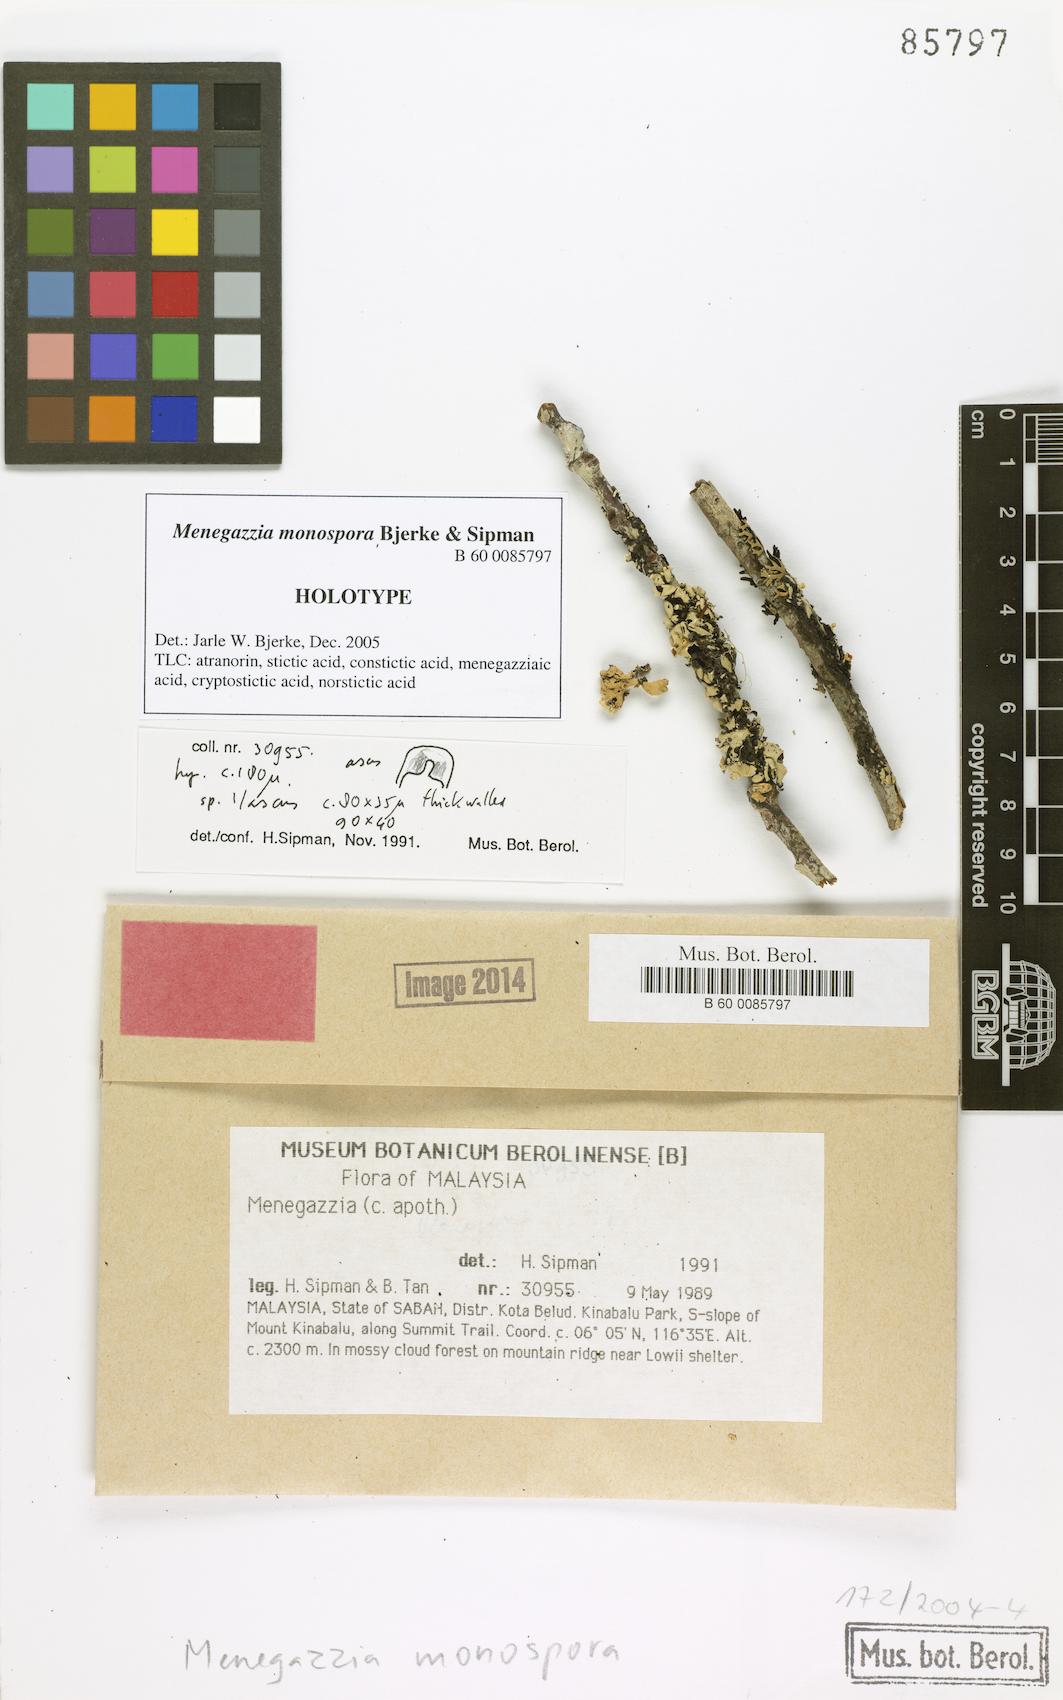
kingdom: Fungi
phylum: Ascomycota
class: Lecanoromycetes
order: Lecanorales
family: Parmeliaceae
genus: Menegazzia
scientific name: Menegazzia monospora
